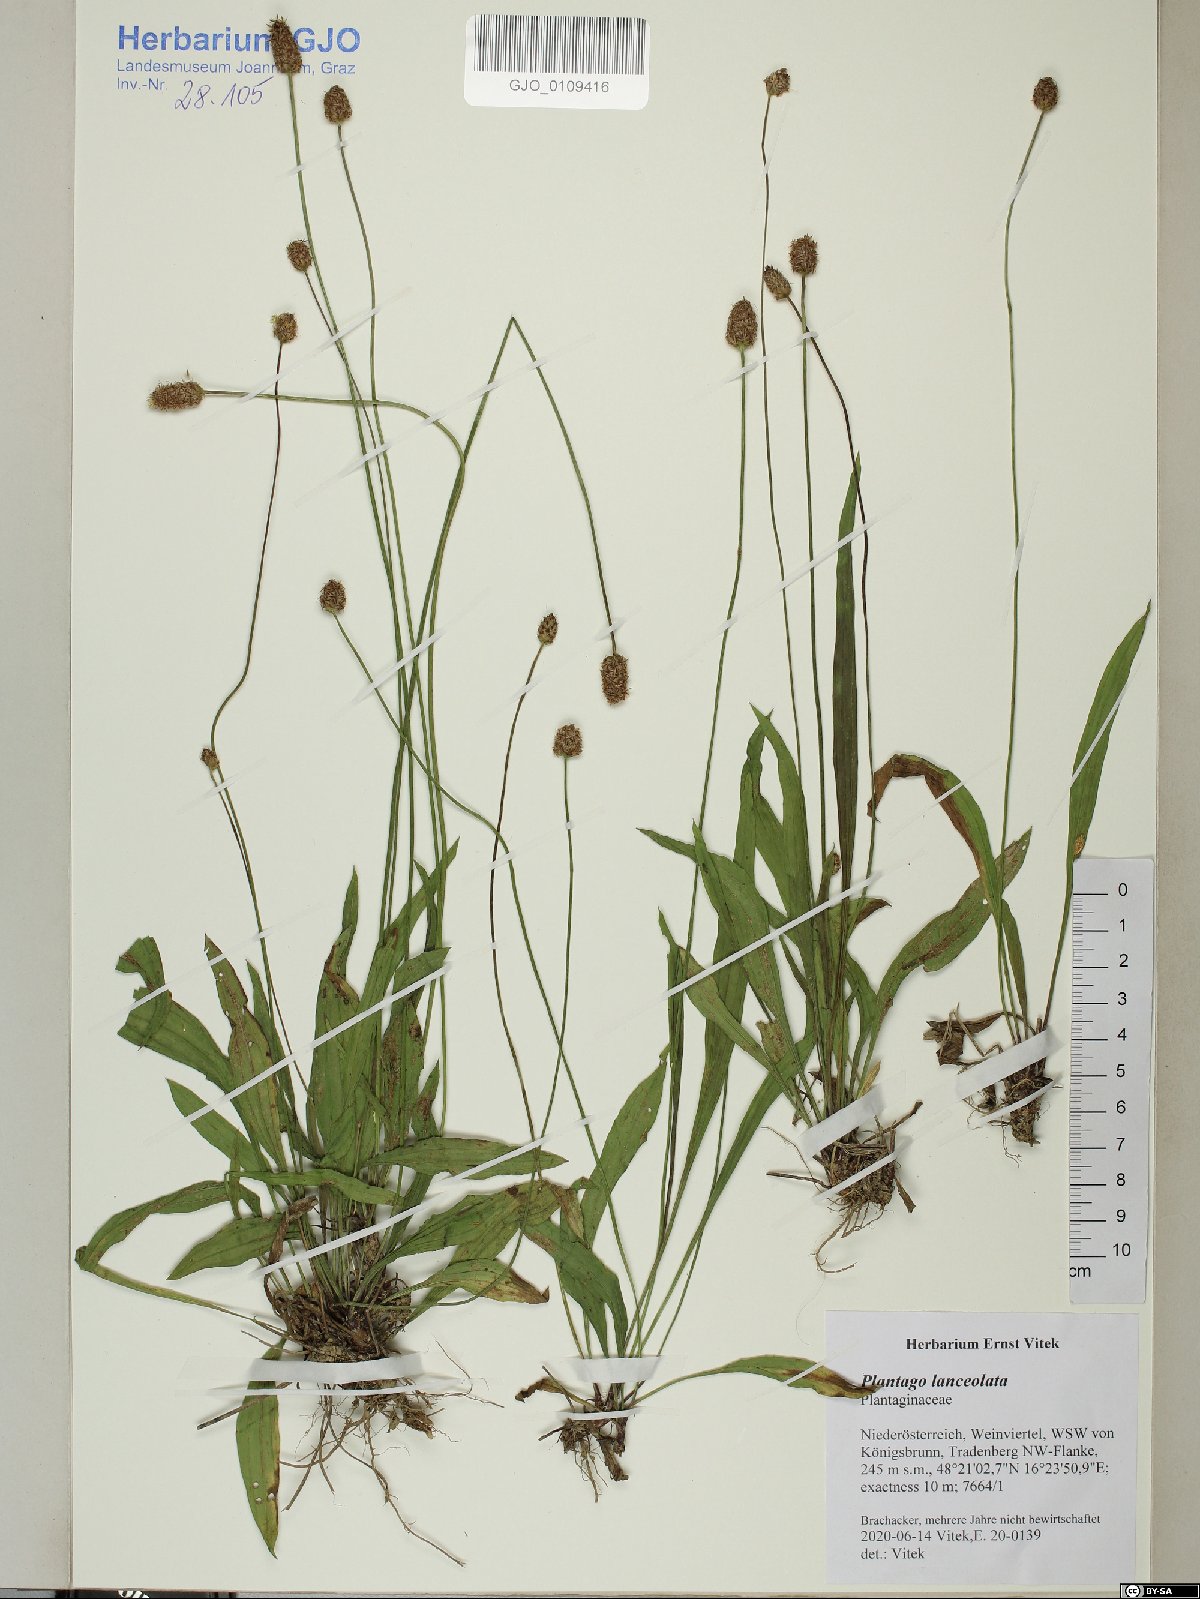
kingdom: Plantae
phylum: Tracheophyta
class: Magnoliopsida
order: Lamiales
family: Plantaginaceae
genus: Plantago
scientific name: Plantago lanceolata
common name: Ribwort plantain
